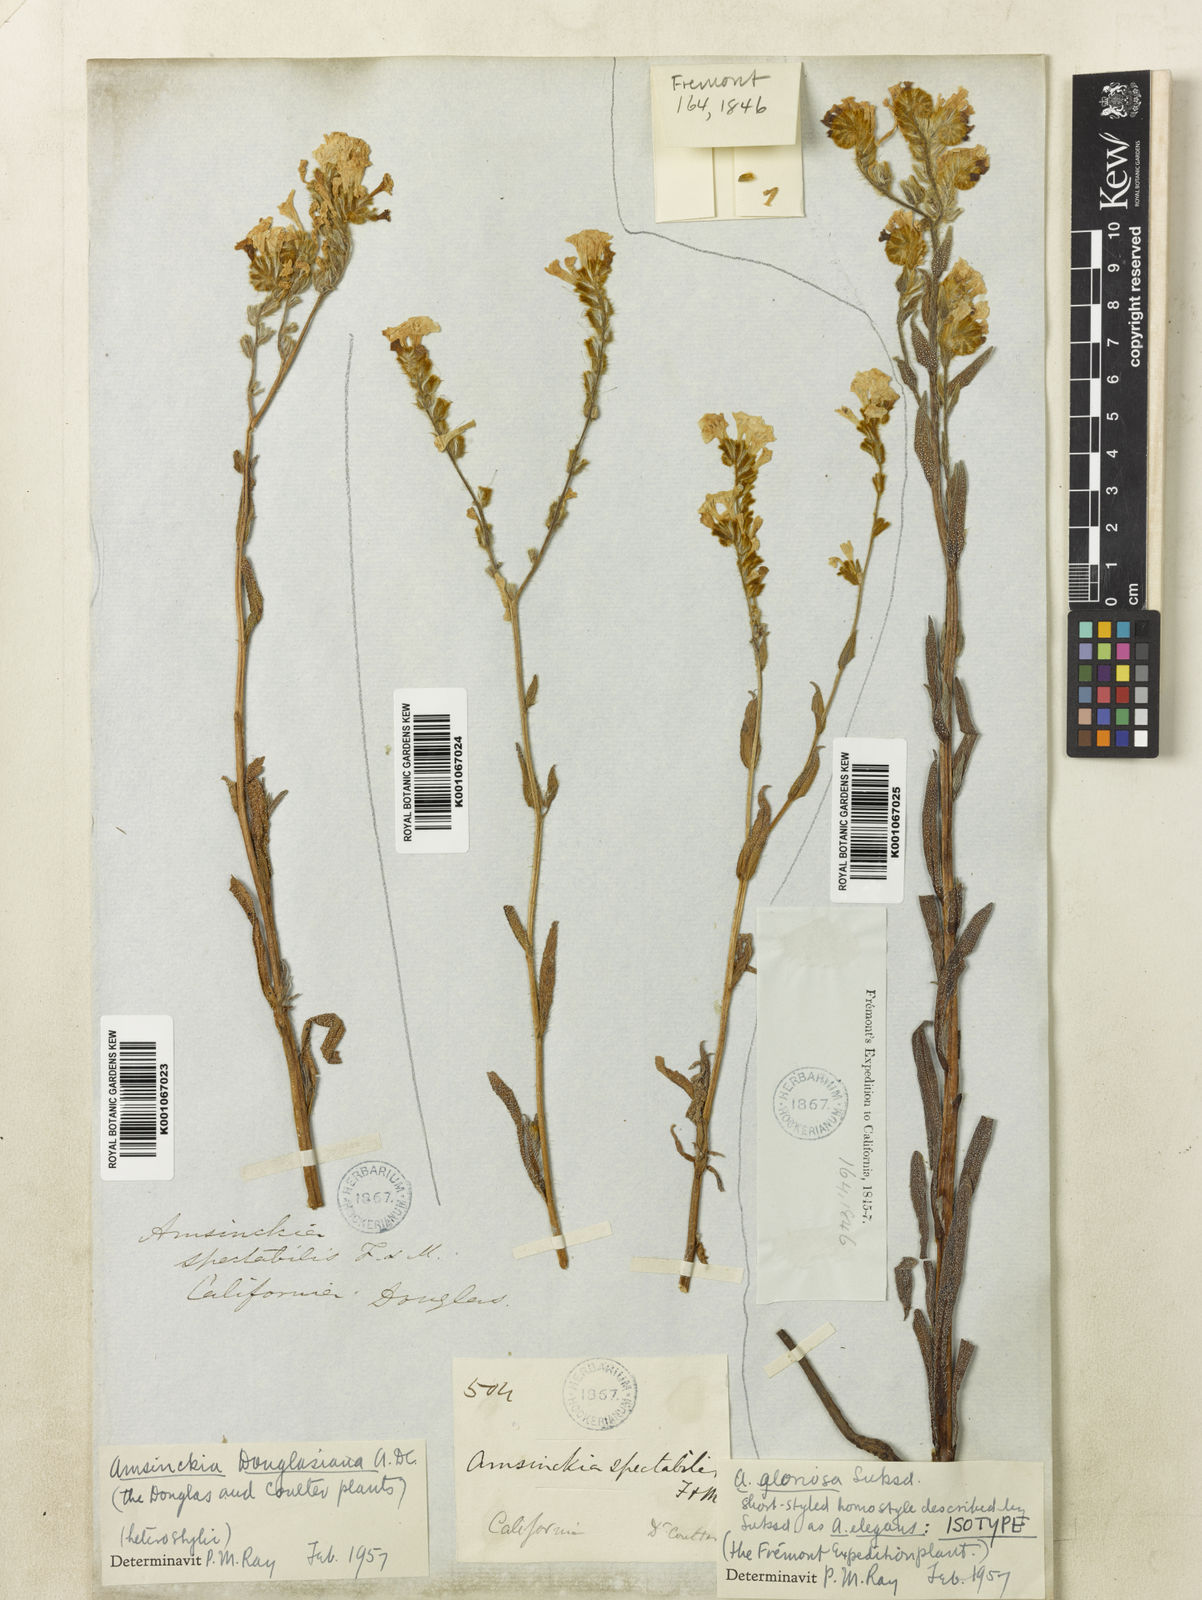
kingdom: Plantae
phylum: Tracheophyta
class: Magnoliopsida
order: Boraginales
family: Boraginaceae
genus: Amsinckia
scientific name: Amsinckia douglasiana
